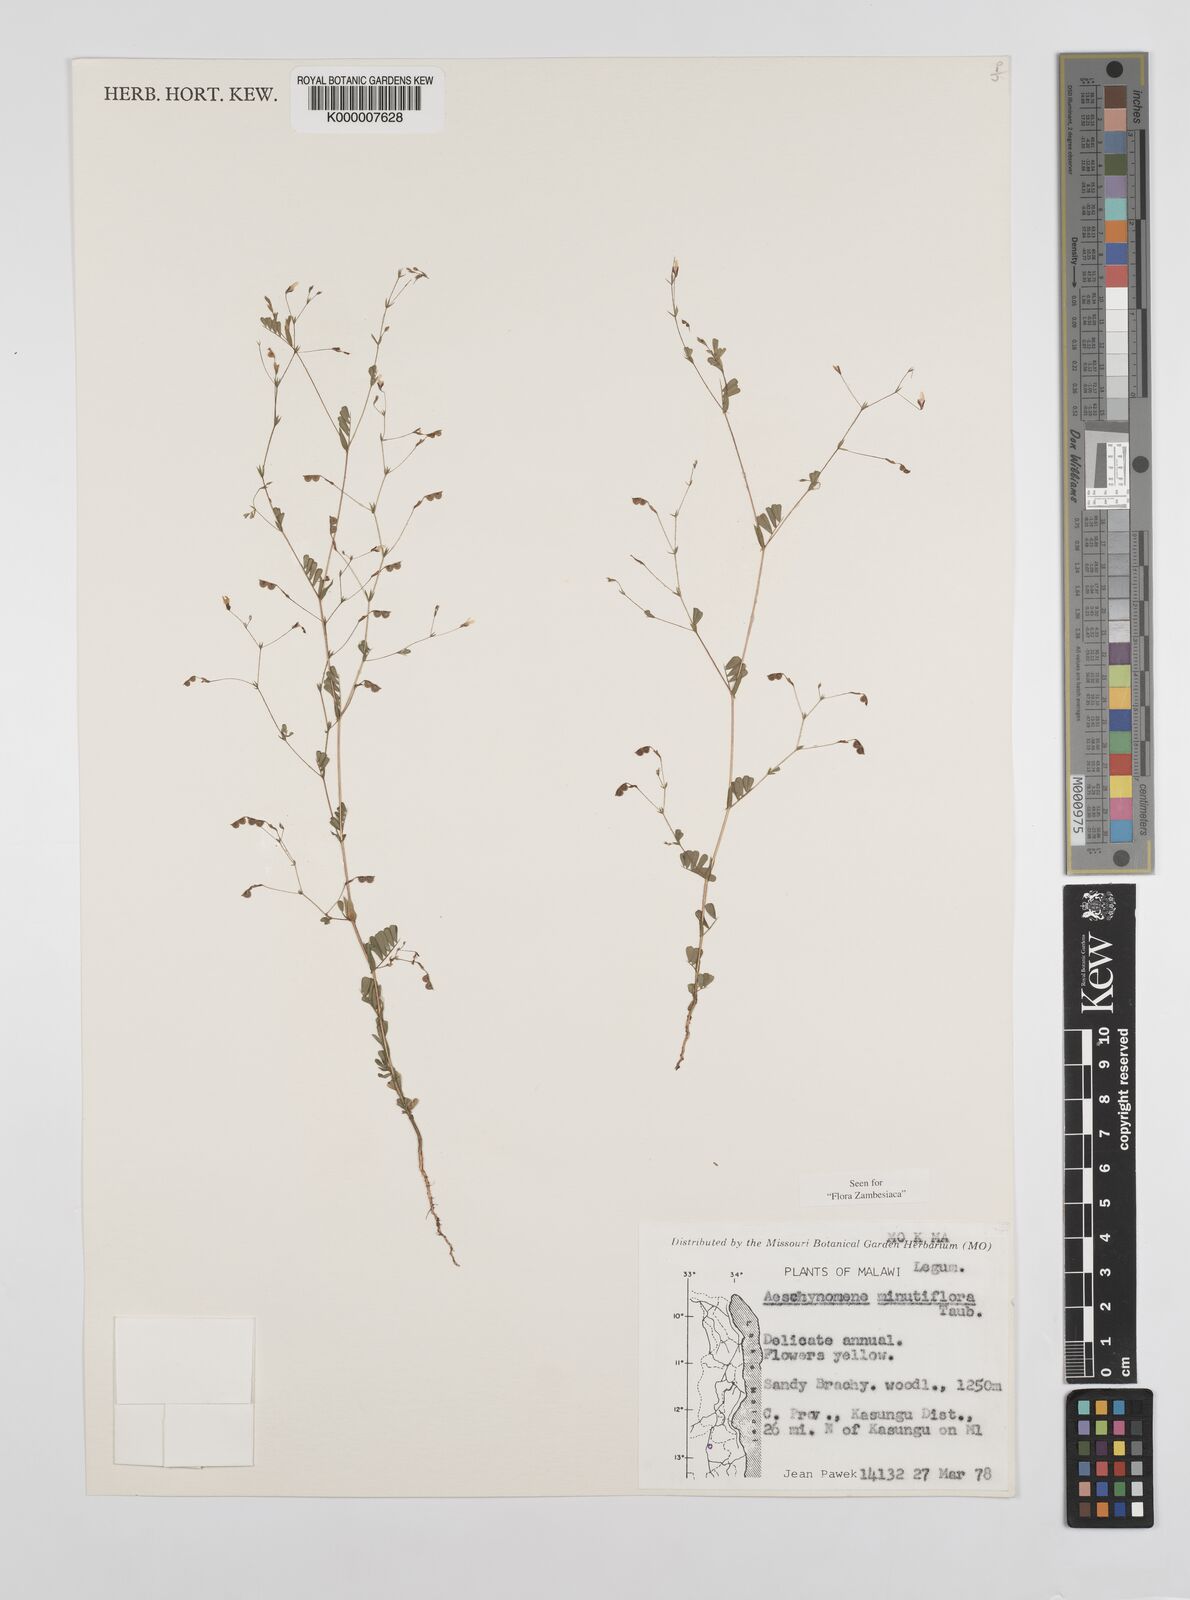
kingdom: Plantae
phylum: Tracheophyta
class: Magnoliopsida
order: Fabales
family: Fabaceae
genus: Aeschynomene
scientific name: Aeschynomene minutiflora
